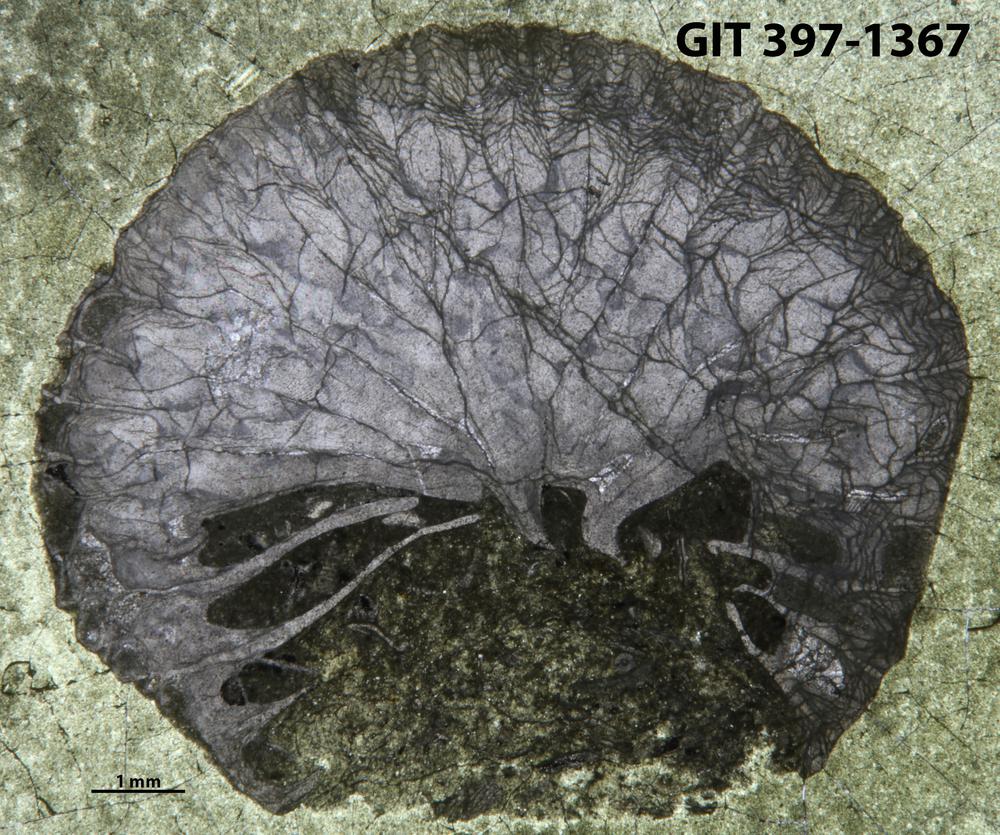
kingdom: Animalia
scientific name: Animalia
